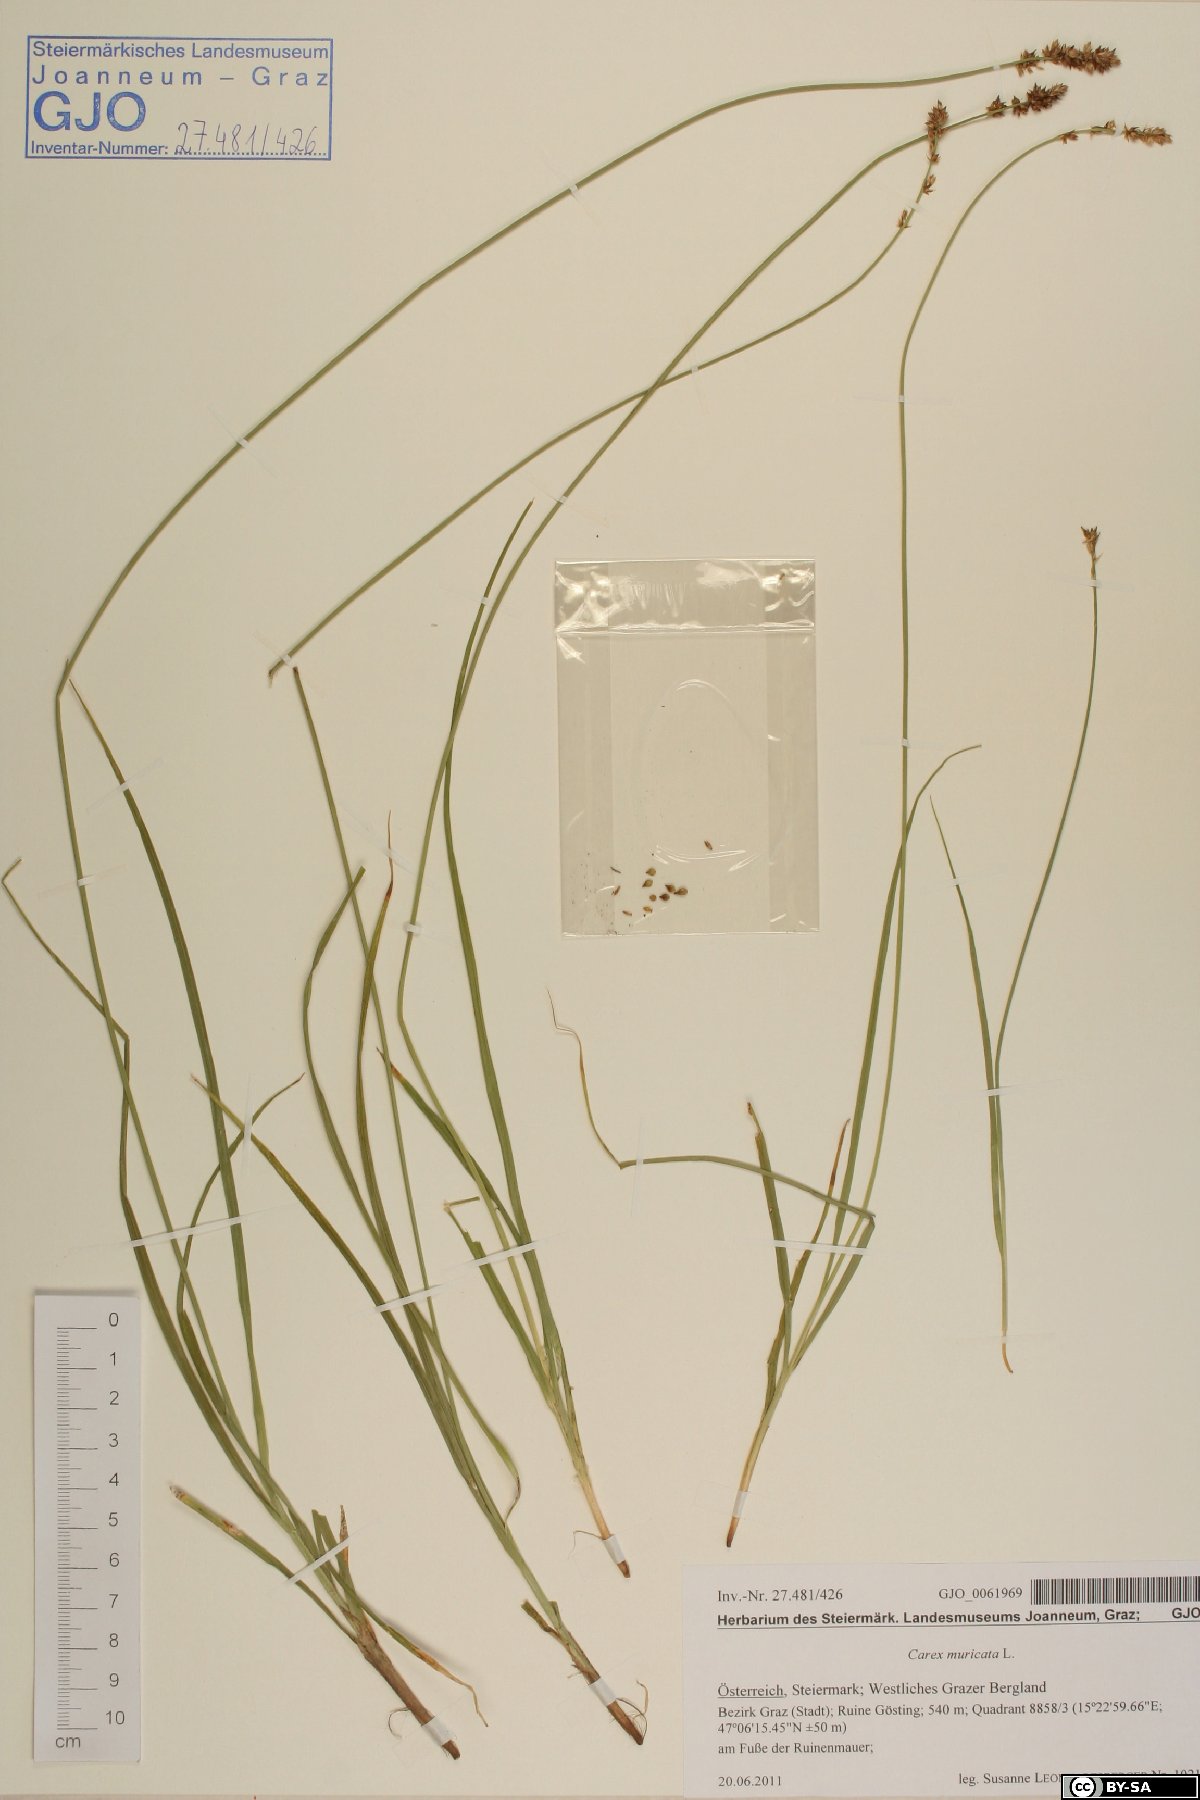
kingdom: Plantae
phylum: Tracheophyta
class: Liliopsida
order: Poales
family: Cyperaceae
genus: Carex
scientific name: Carex muricata
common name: Rough sedge
